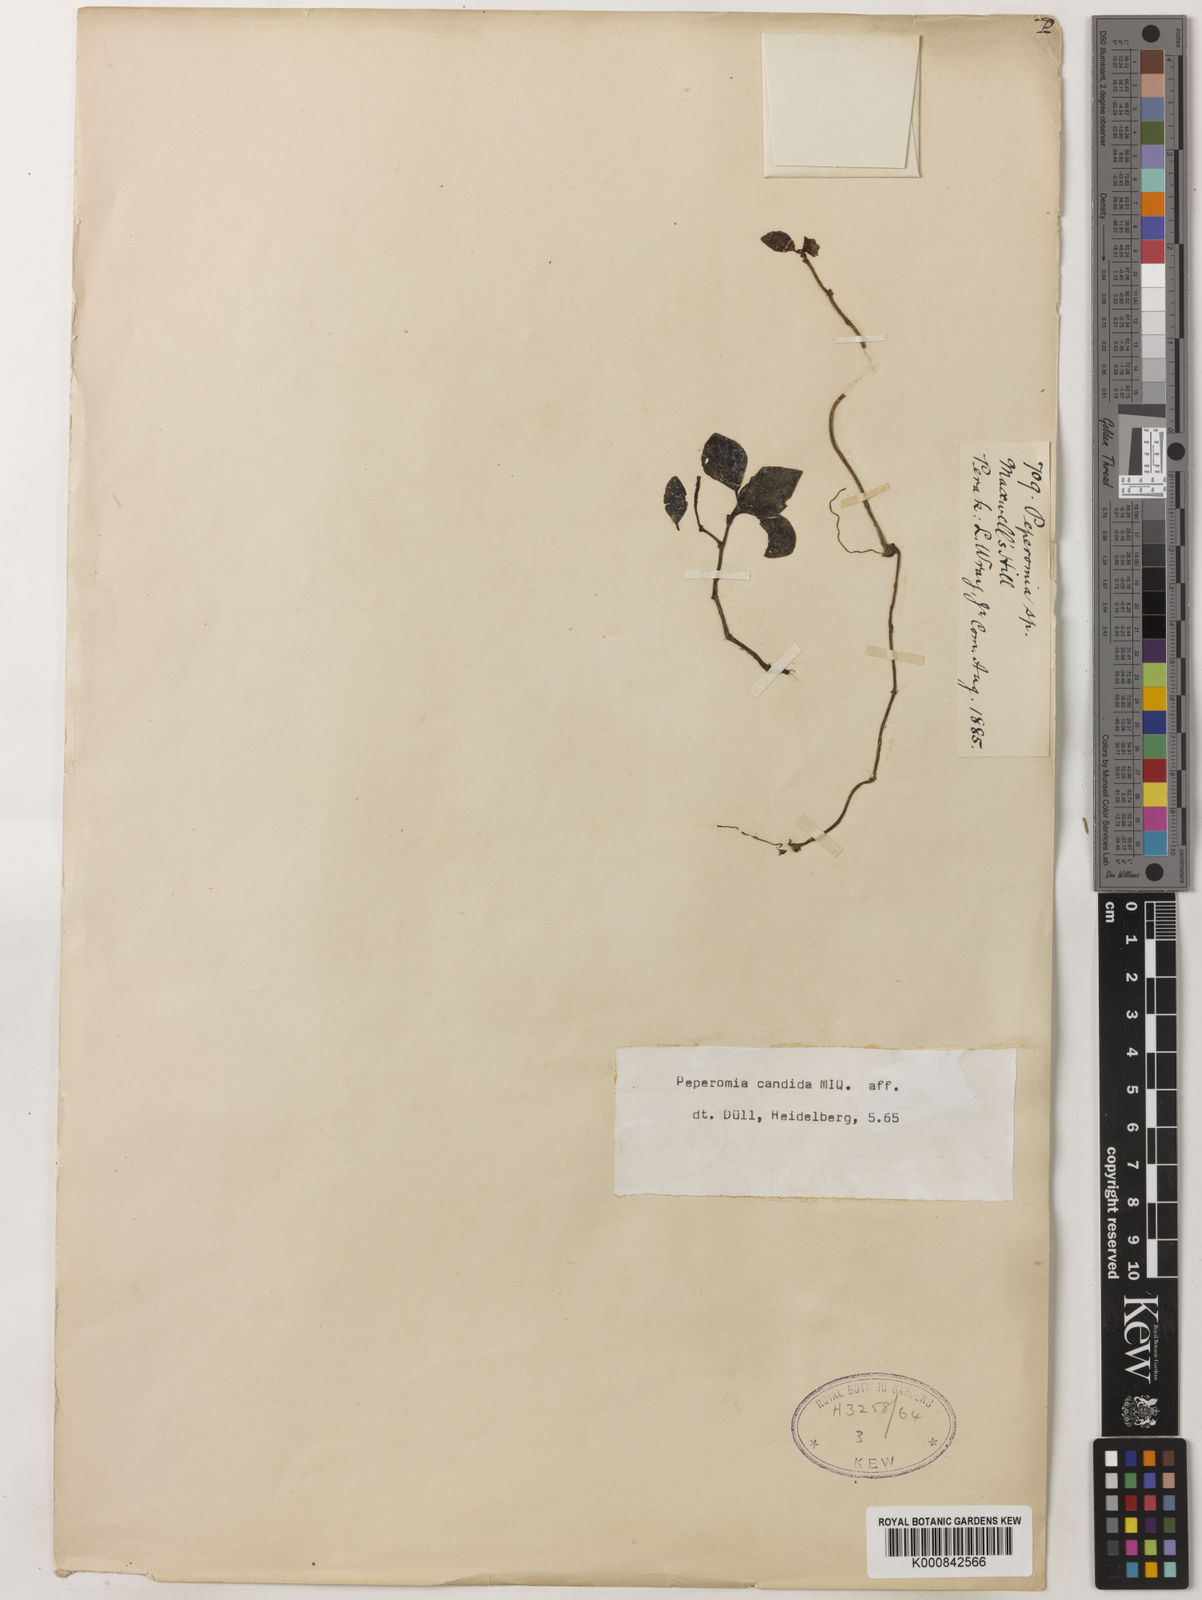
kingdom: Plantae
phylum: Tracheophyta
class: Magnoliopsida
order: Piperales
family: Piperaceae
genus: Peperomia
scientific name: Peperomia candida
